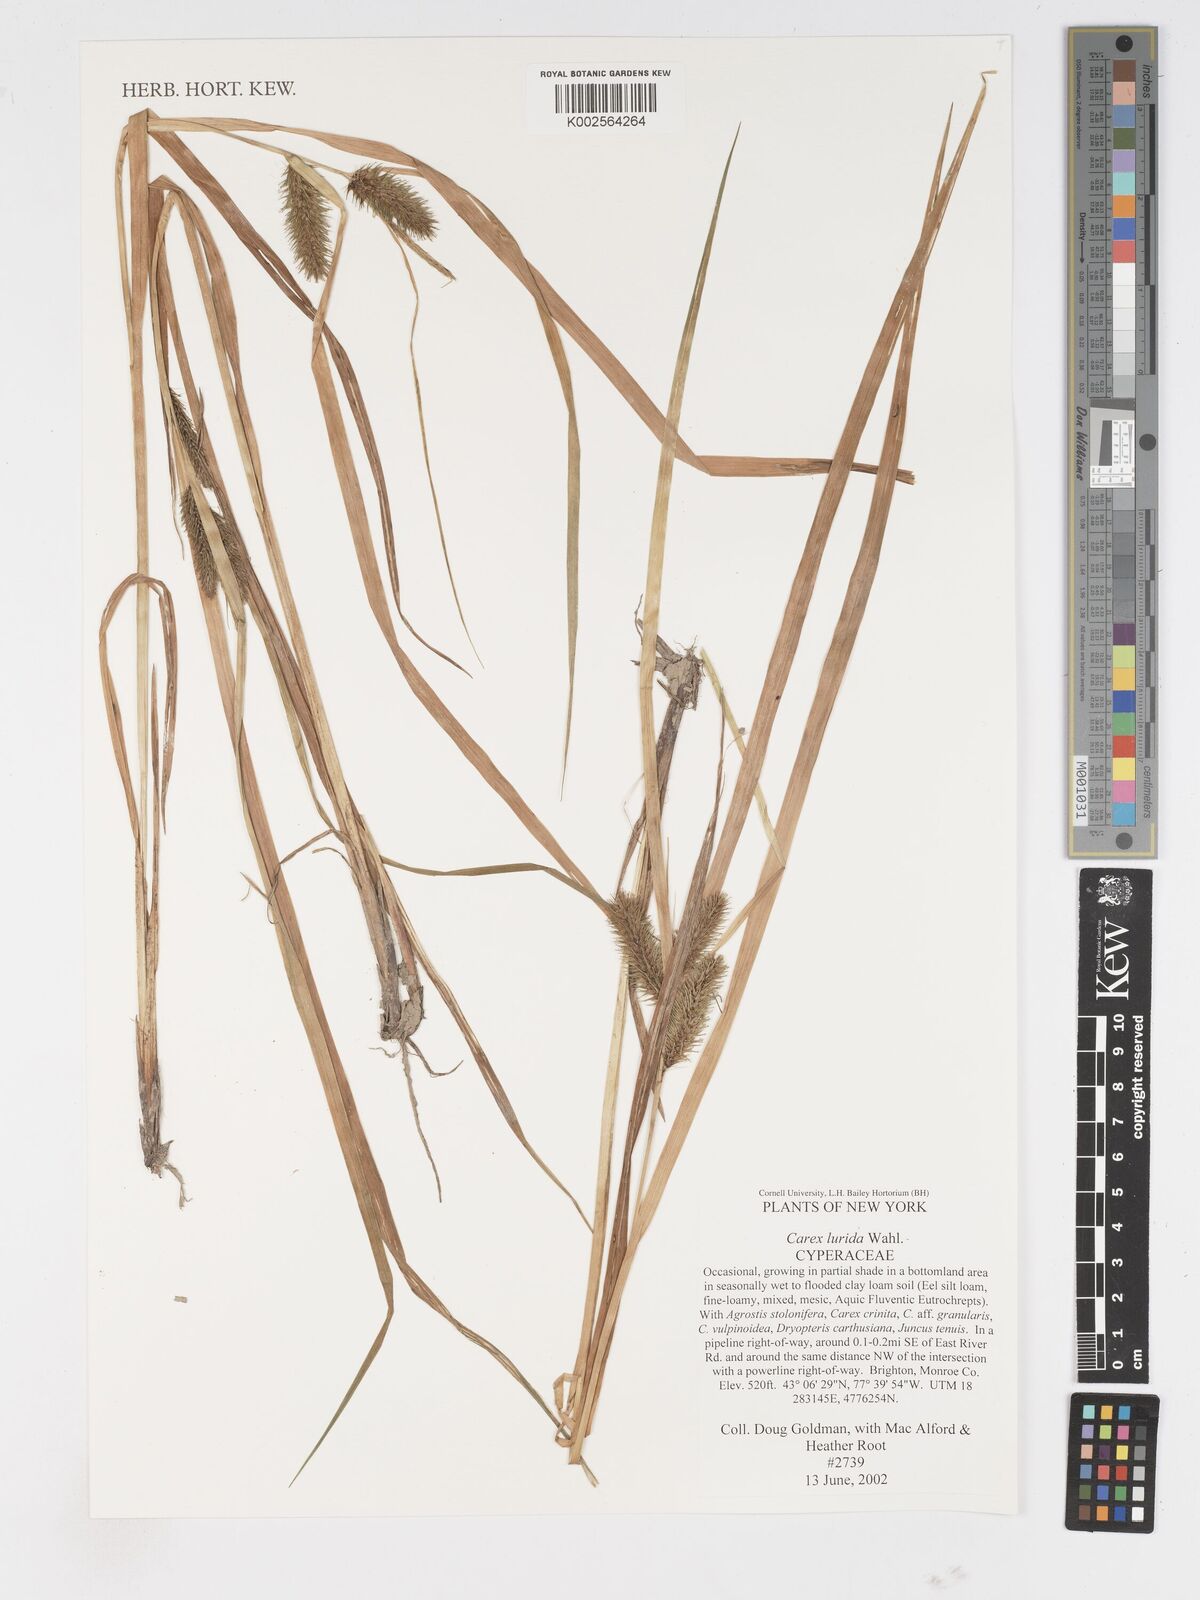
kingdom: Plantae
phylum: Tracheophyta
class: Liliopsida
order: Poales
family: Cyperaceae
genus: Carex
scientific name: Carex lurida
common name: Sallow sedge
